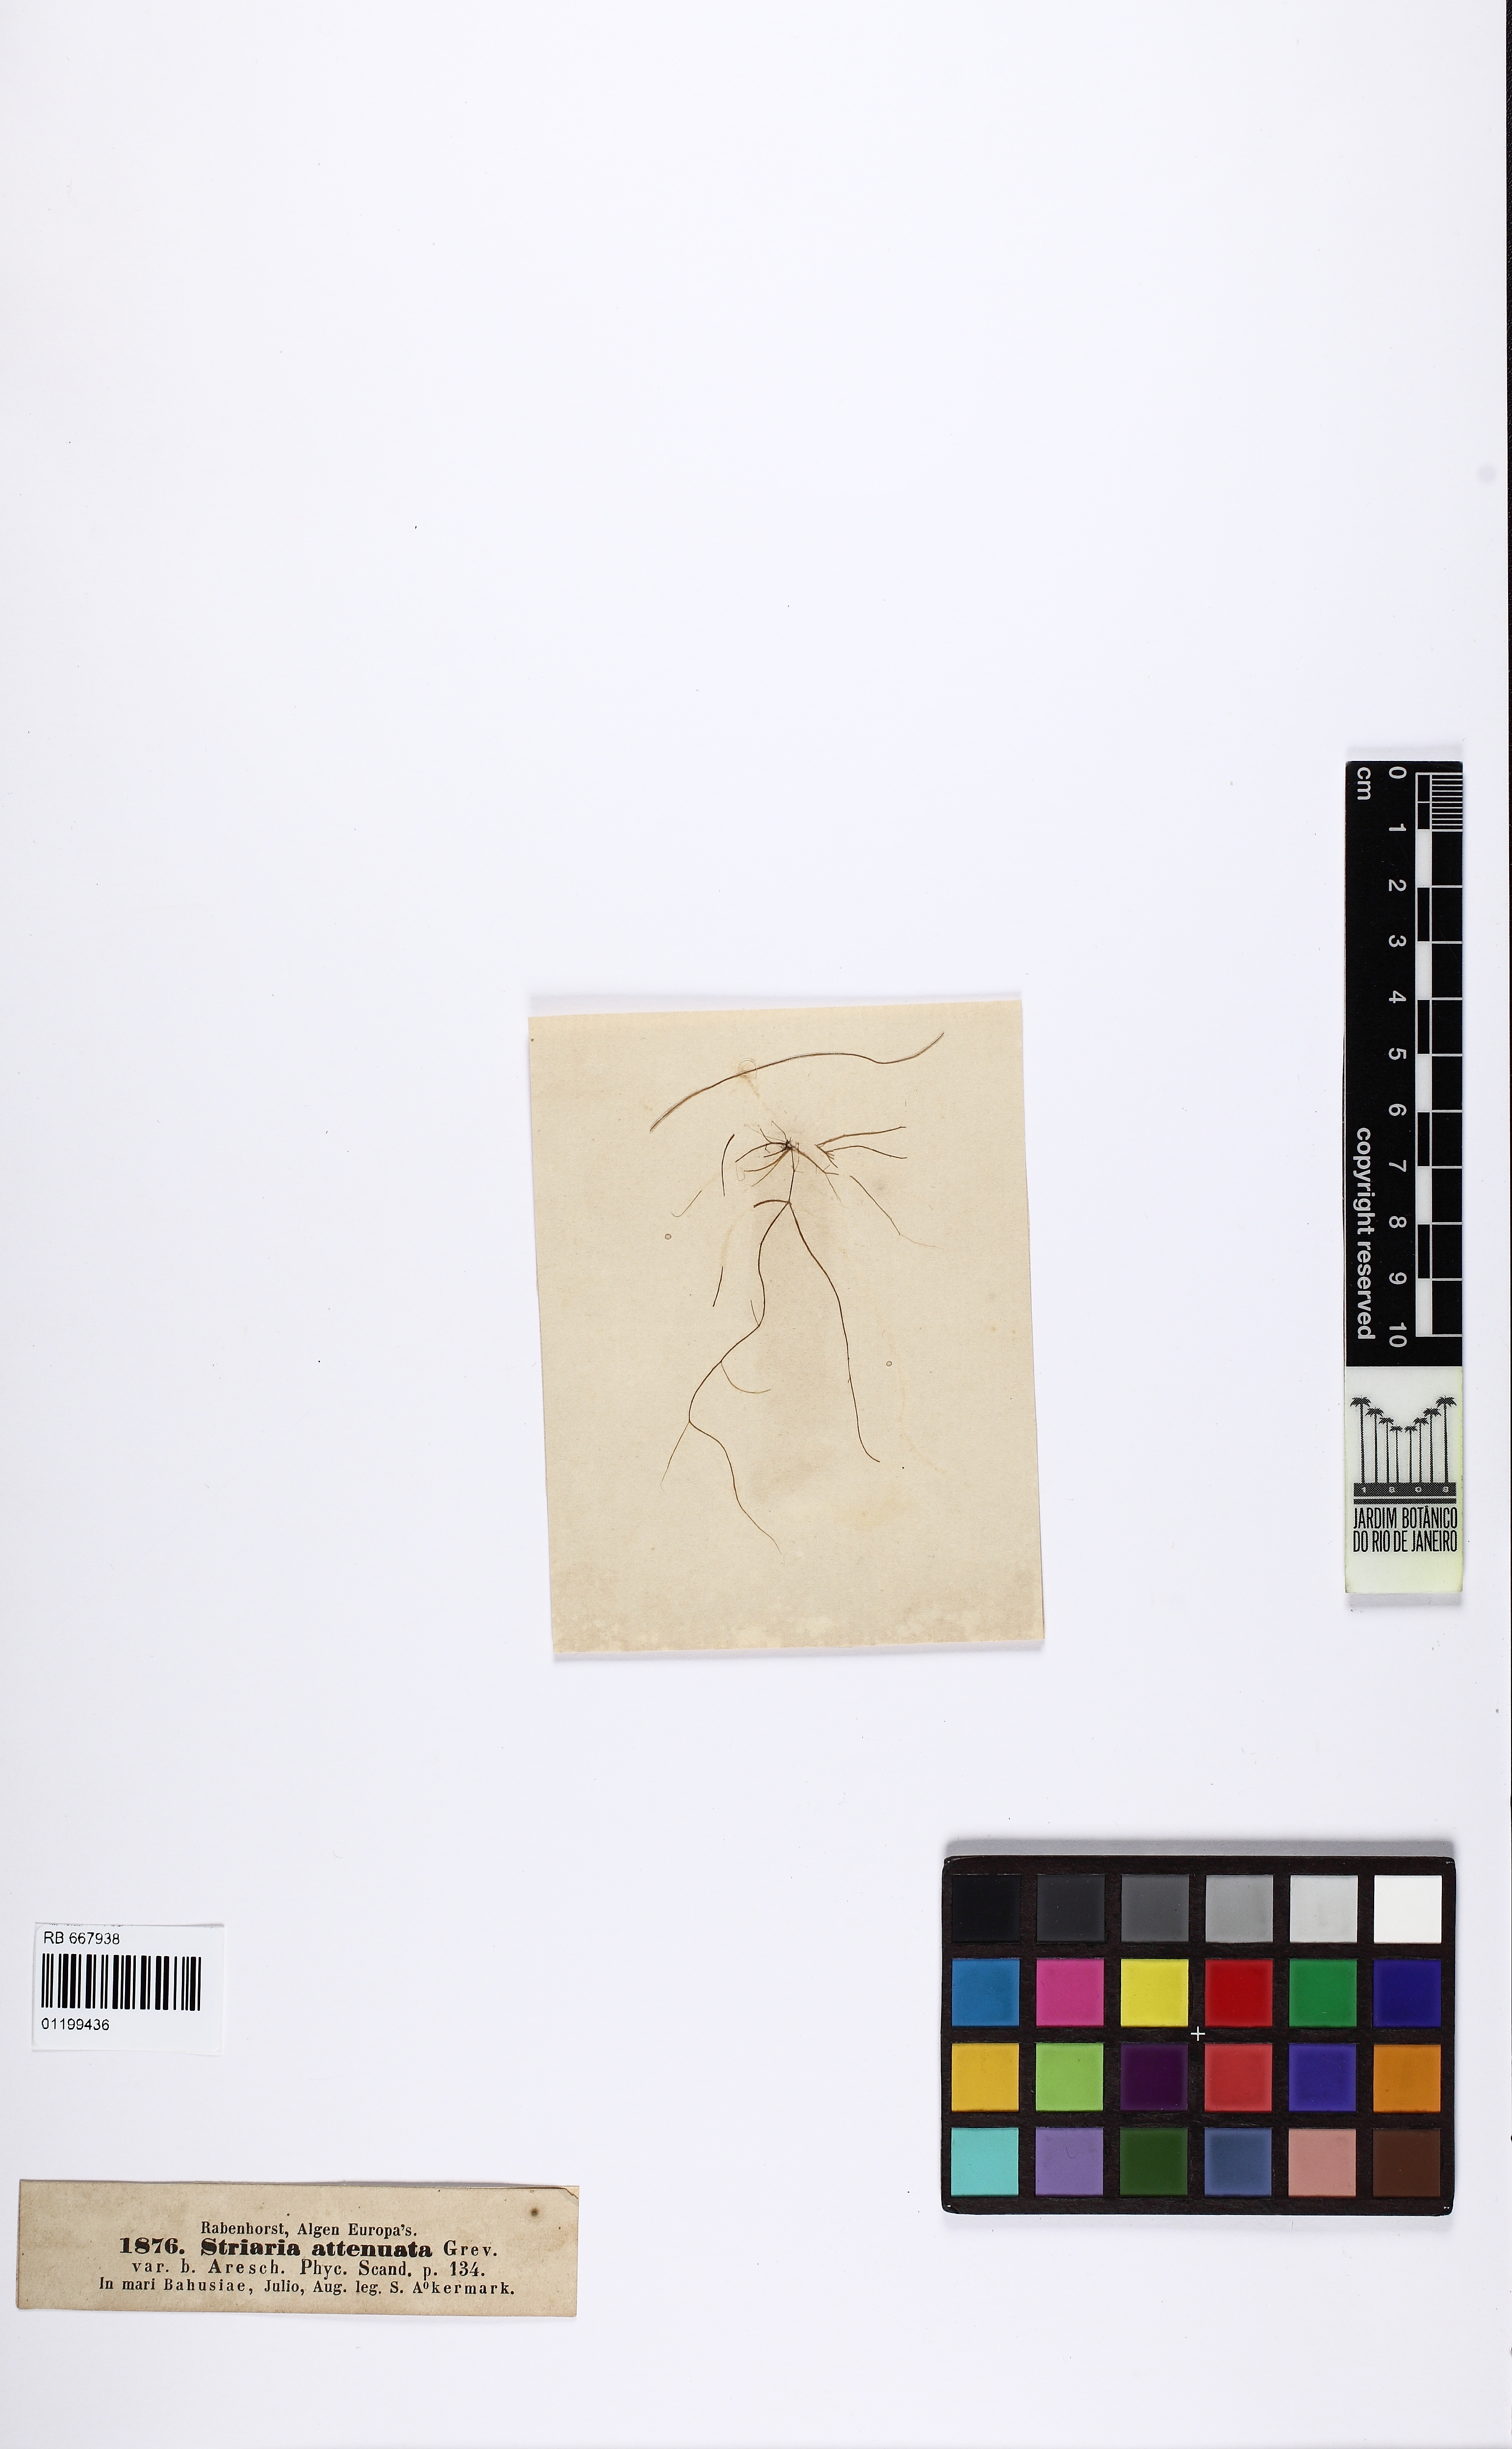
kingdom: Chromista
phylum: Ochrophyta
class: Phaeophyceae
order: Ectocarpales
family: Chordariaceae
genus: Striaria
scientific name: Striaria attenuata
